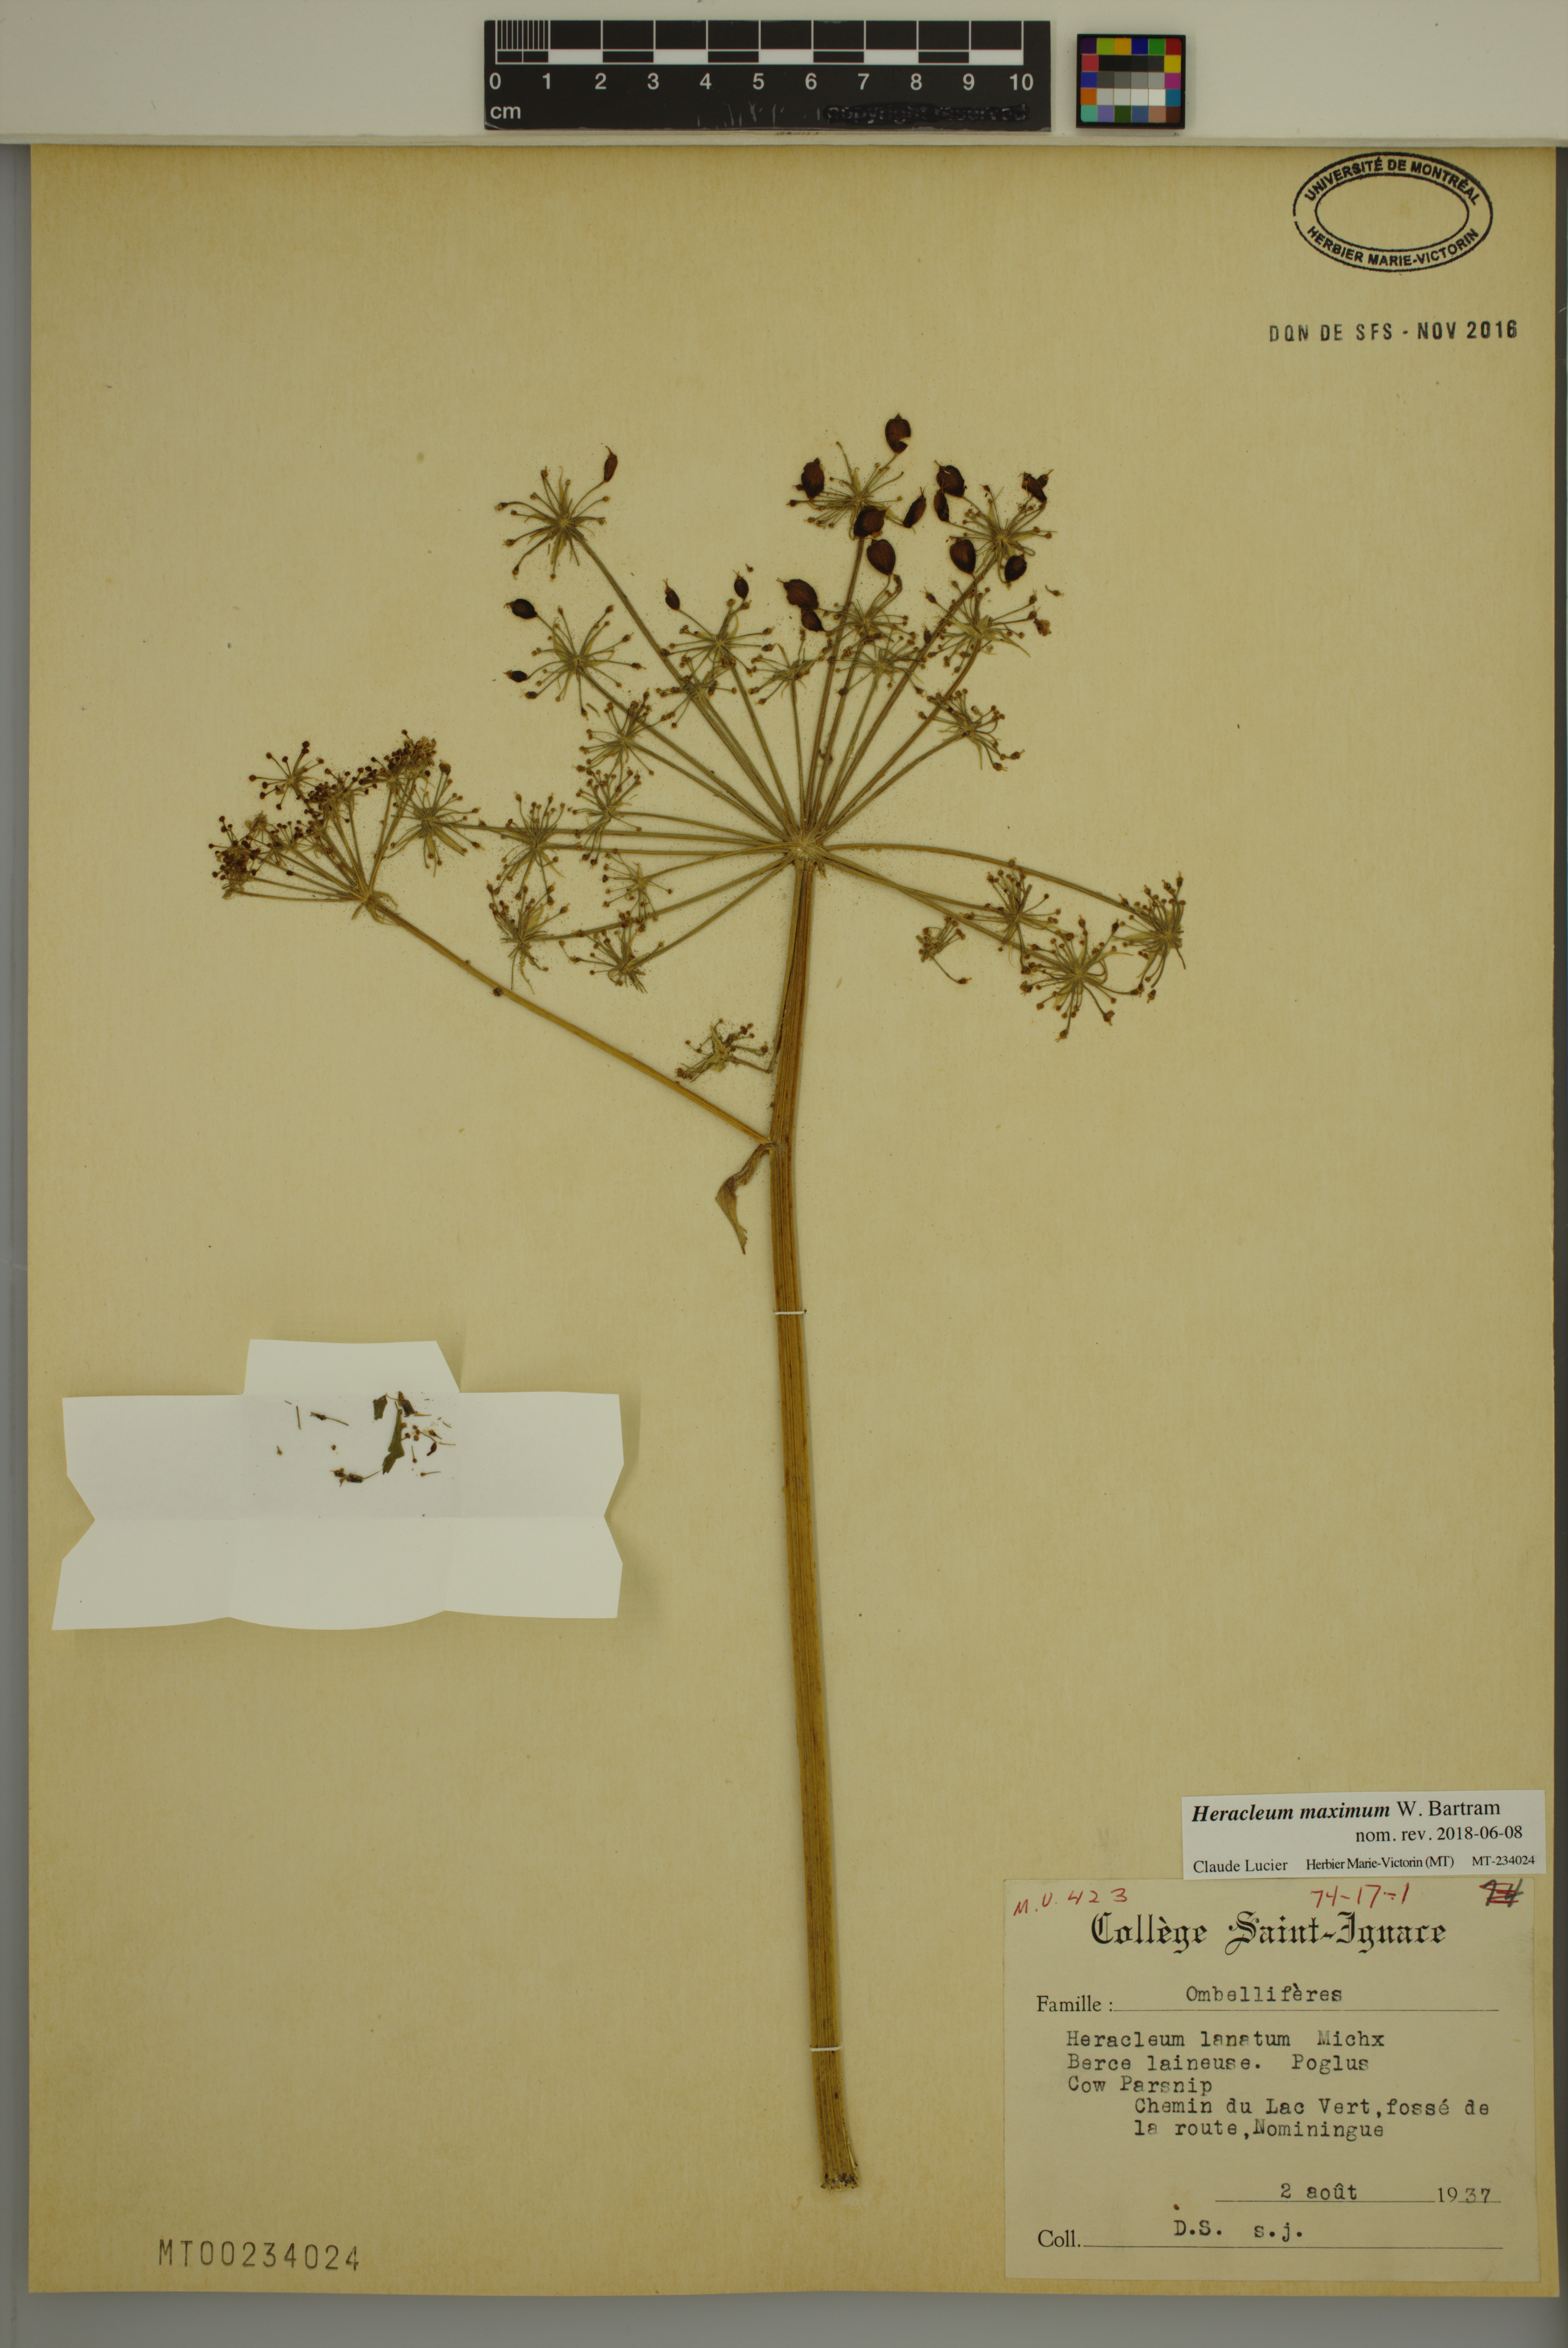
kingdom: Plantae
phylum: Tracheophyta
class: Magnoliopsida
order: Apiales
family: Apiaceae
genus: Heracleum
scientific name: Heracleum maximum
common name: American cow parsnip
